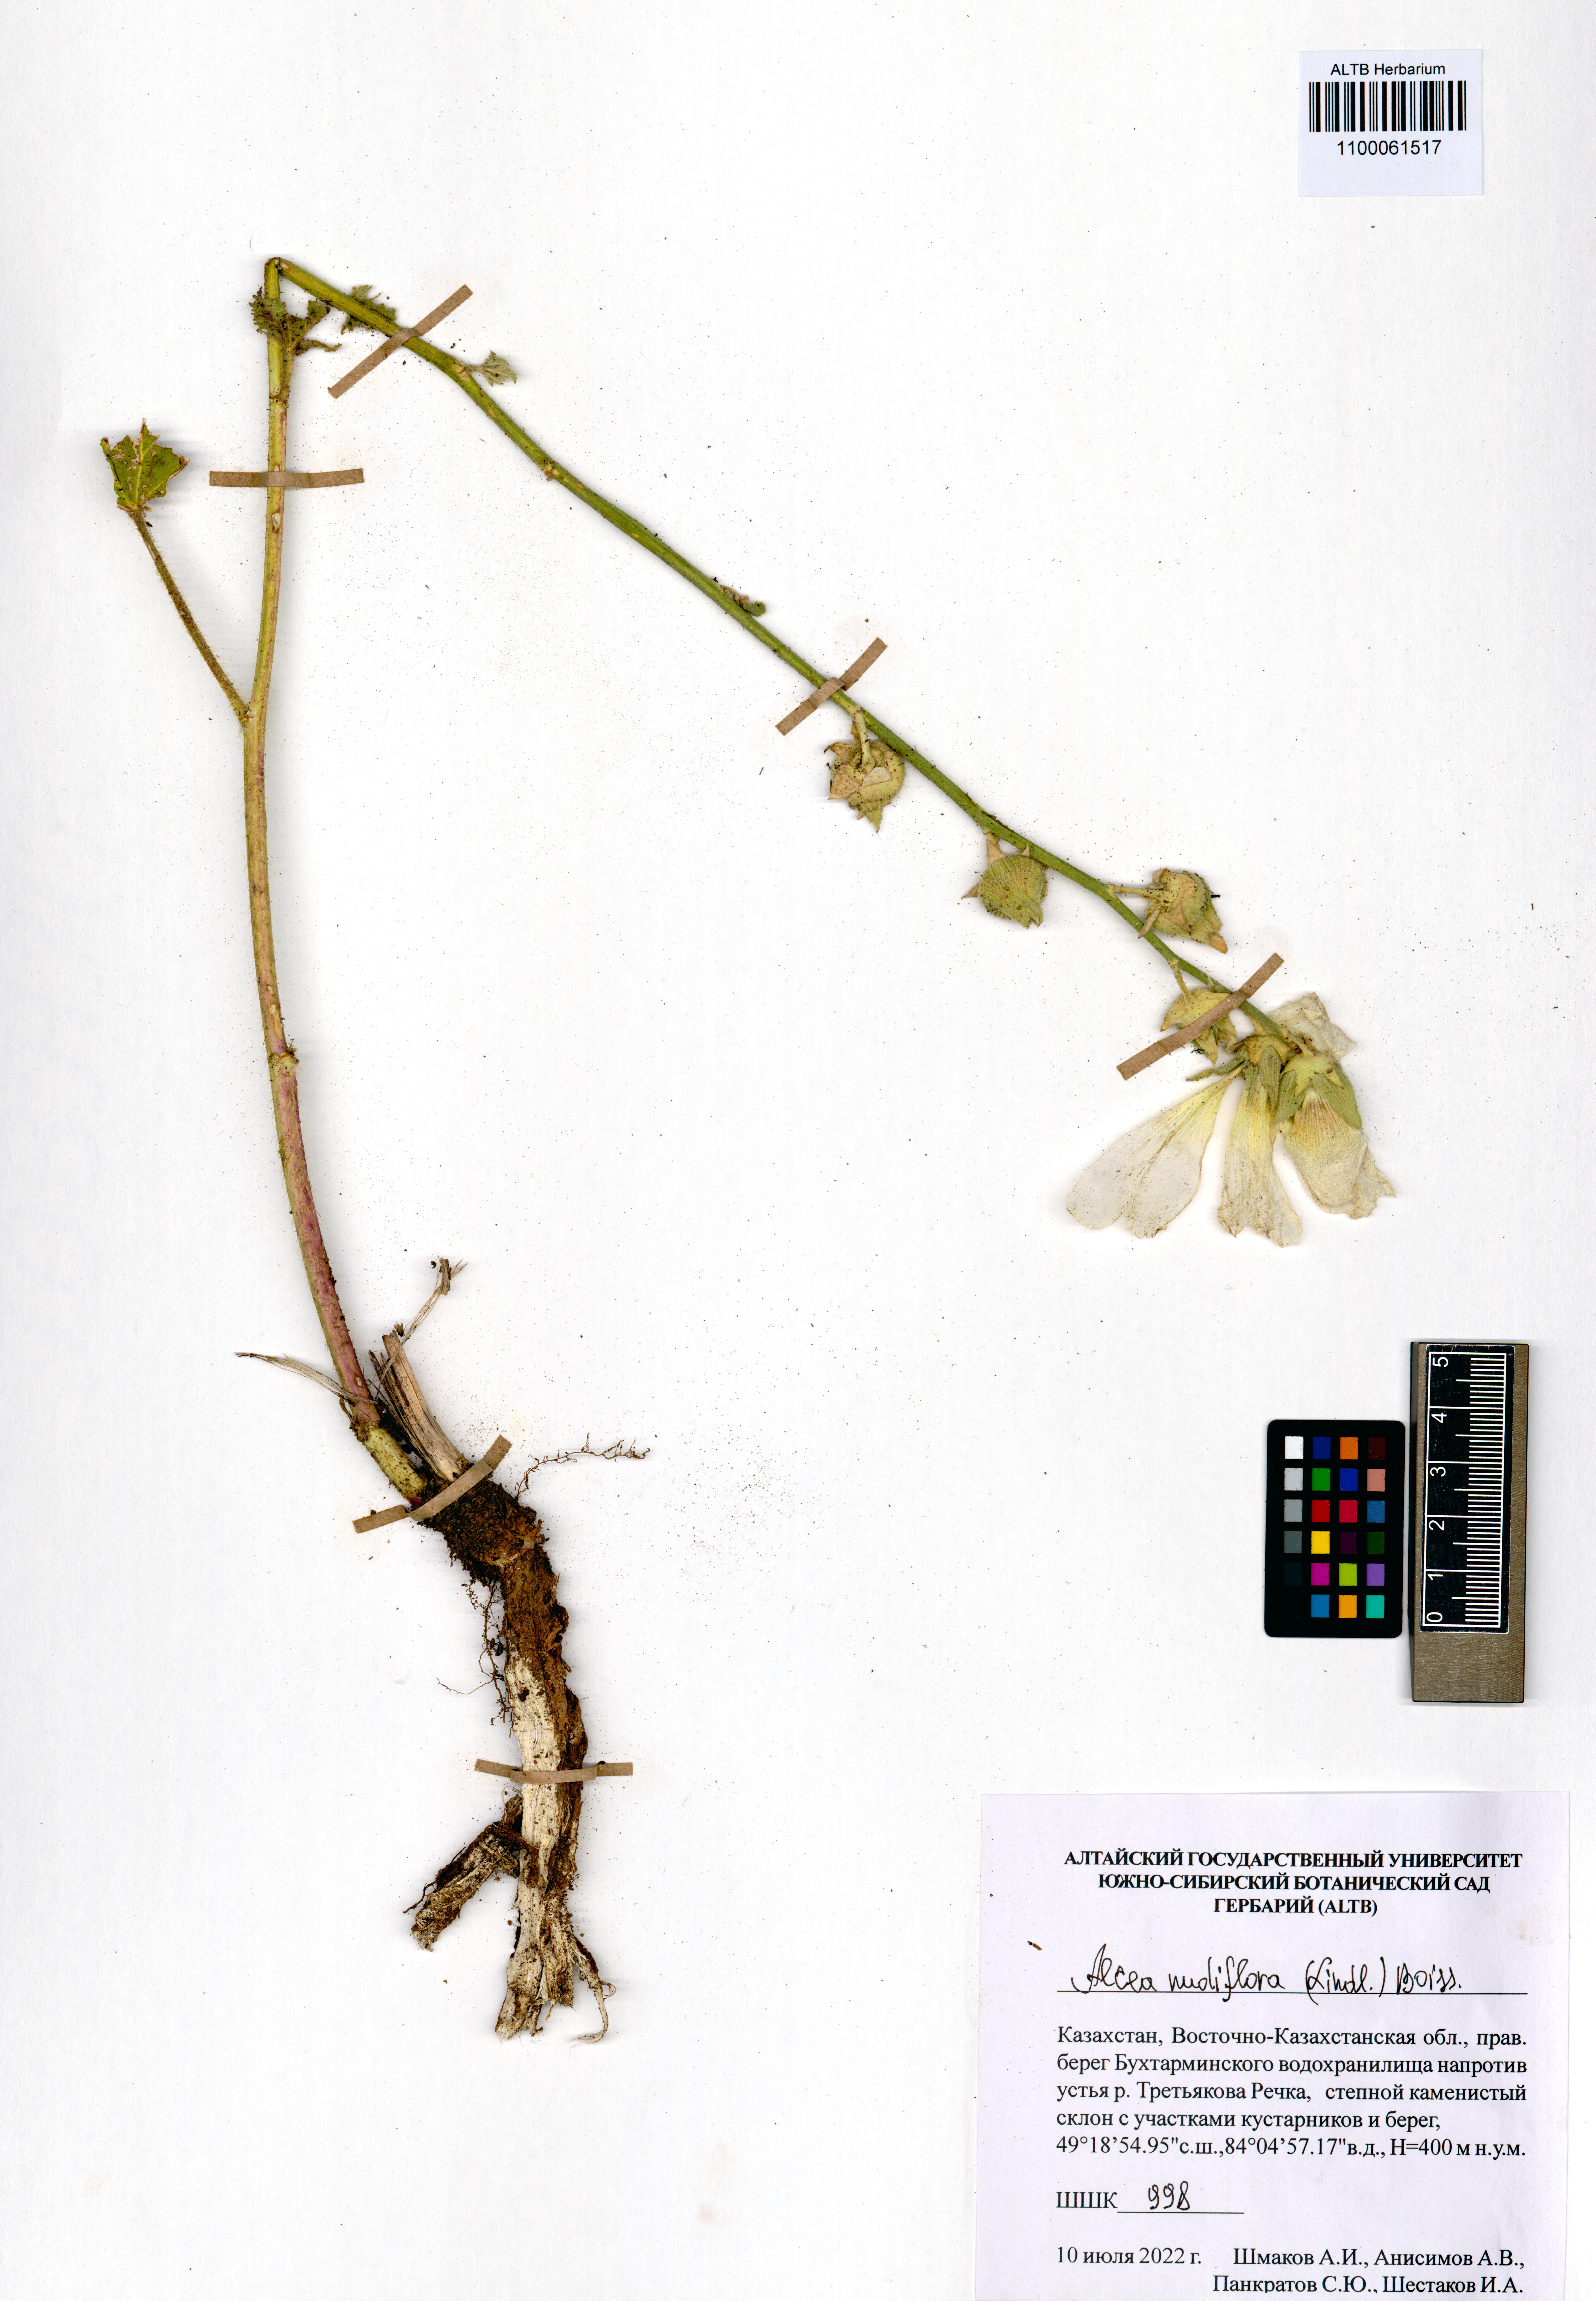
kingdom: Plantae
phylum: Tracheophyta
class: Magnoliopsida
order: Malvales
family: Malvaceae
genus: Alcea
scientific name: Alcea nudiflora
